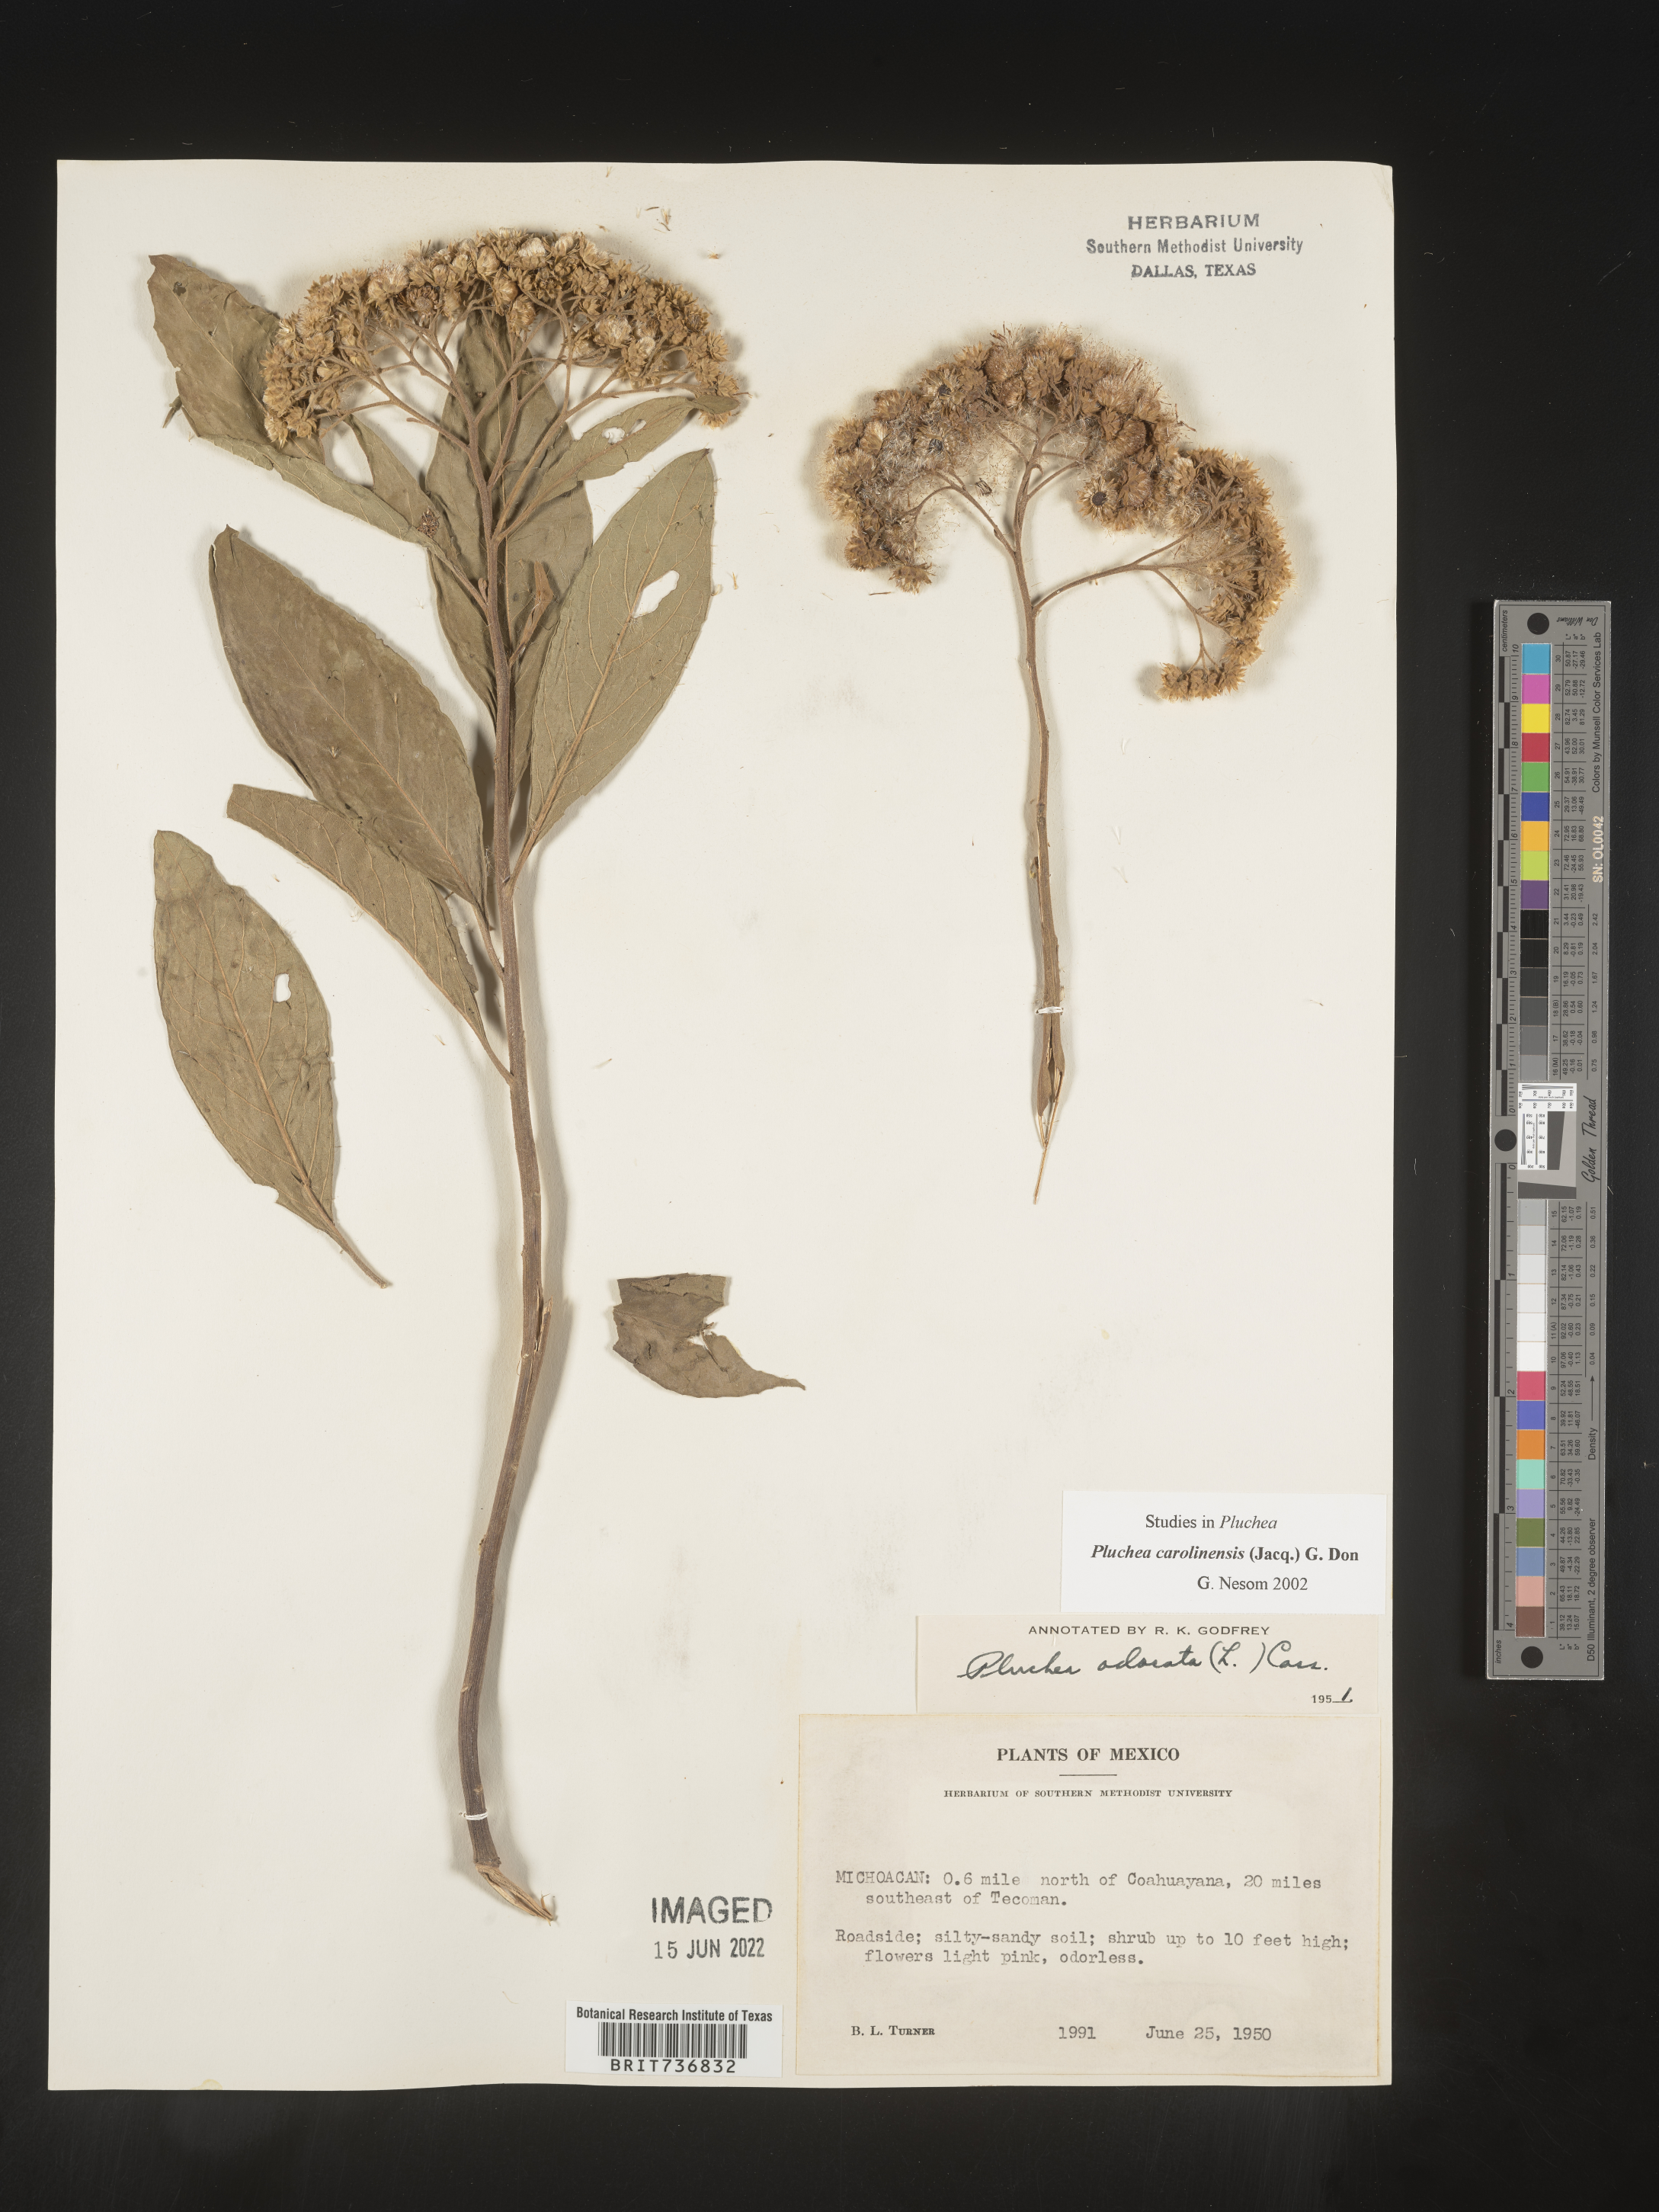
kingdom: Plantae
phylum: Tracheophyta
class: Magnoliopsida
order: Asterales
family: Asteraceae
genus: Pluchea
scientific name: Pluchea
